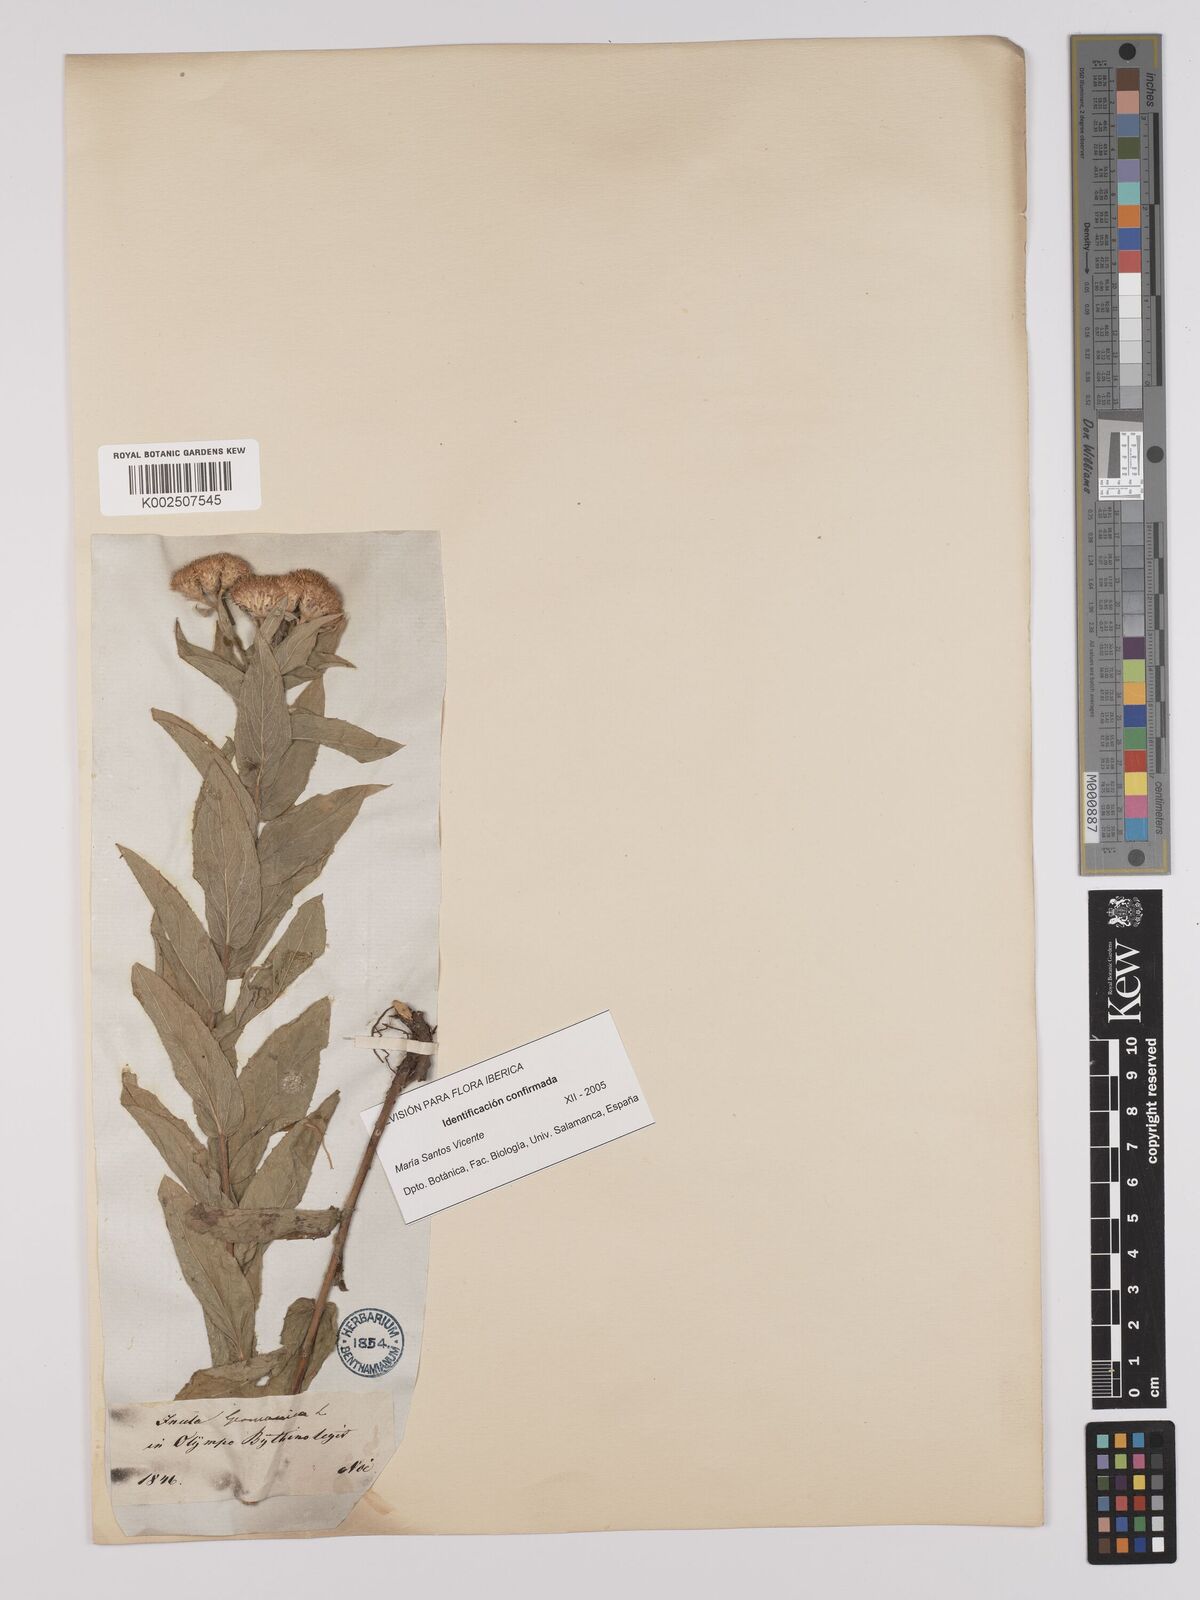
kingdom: Plantae
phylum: Tracheophyta
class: Magnoliopsida
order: Asterales
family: Asteraceae
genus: Pentanema
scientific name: Pentanema germanicum
